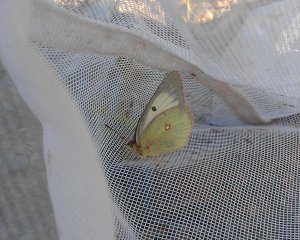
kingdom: Animalia
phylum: Arthropoda
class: Insecta
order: Lepidoptera
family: Pieridae
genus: Colias
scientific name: Colias philodice
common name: Clouded Sulphur
